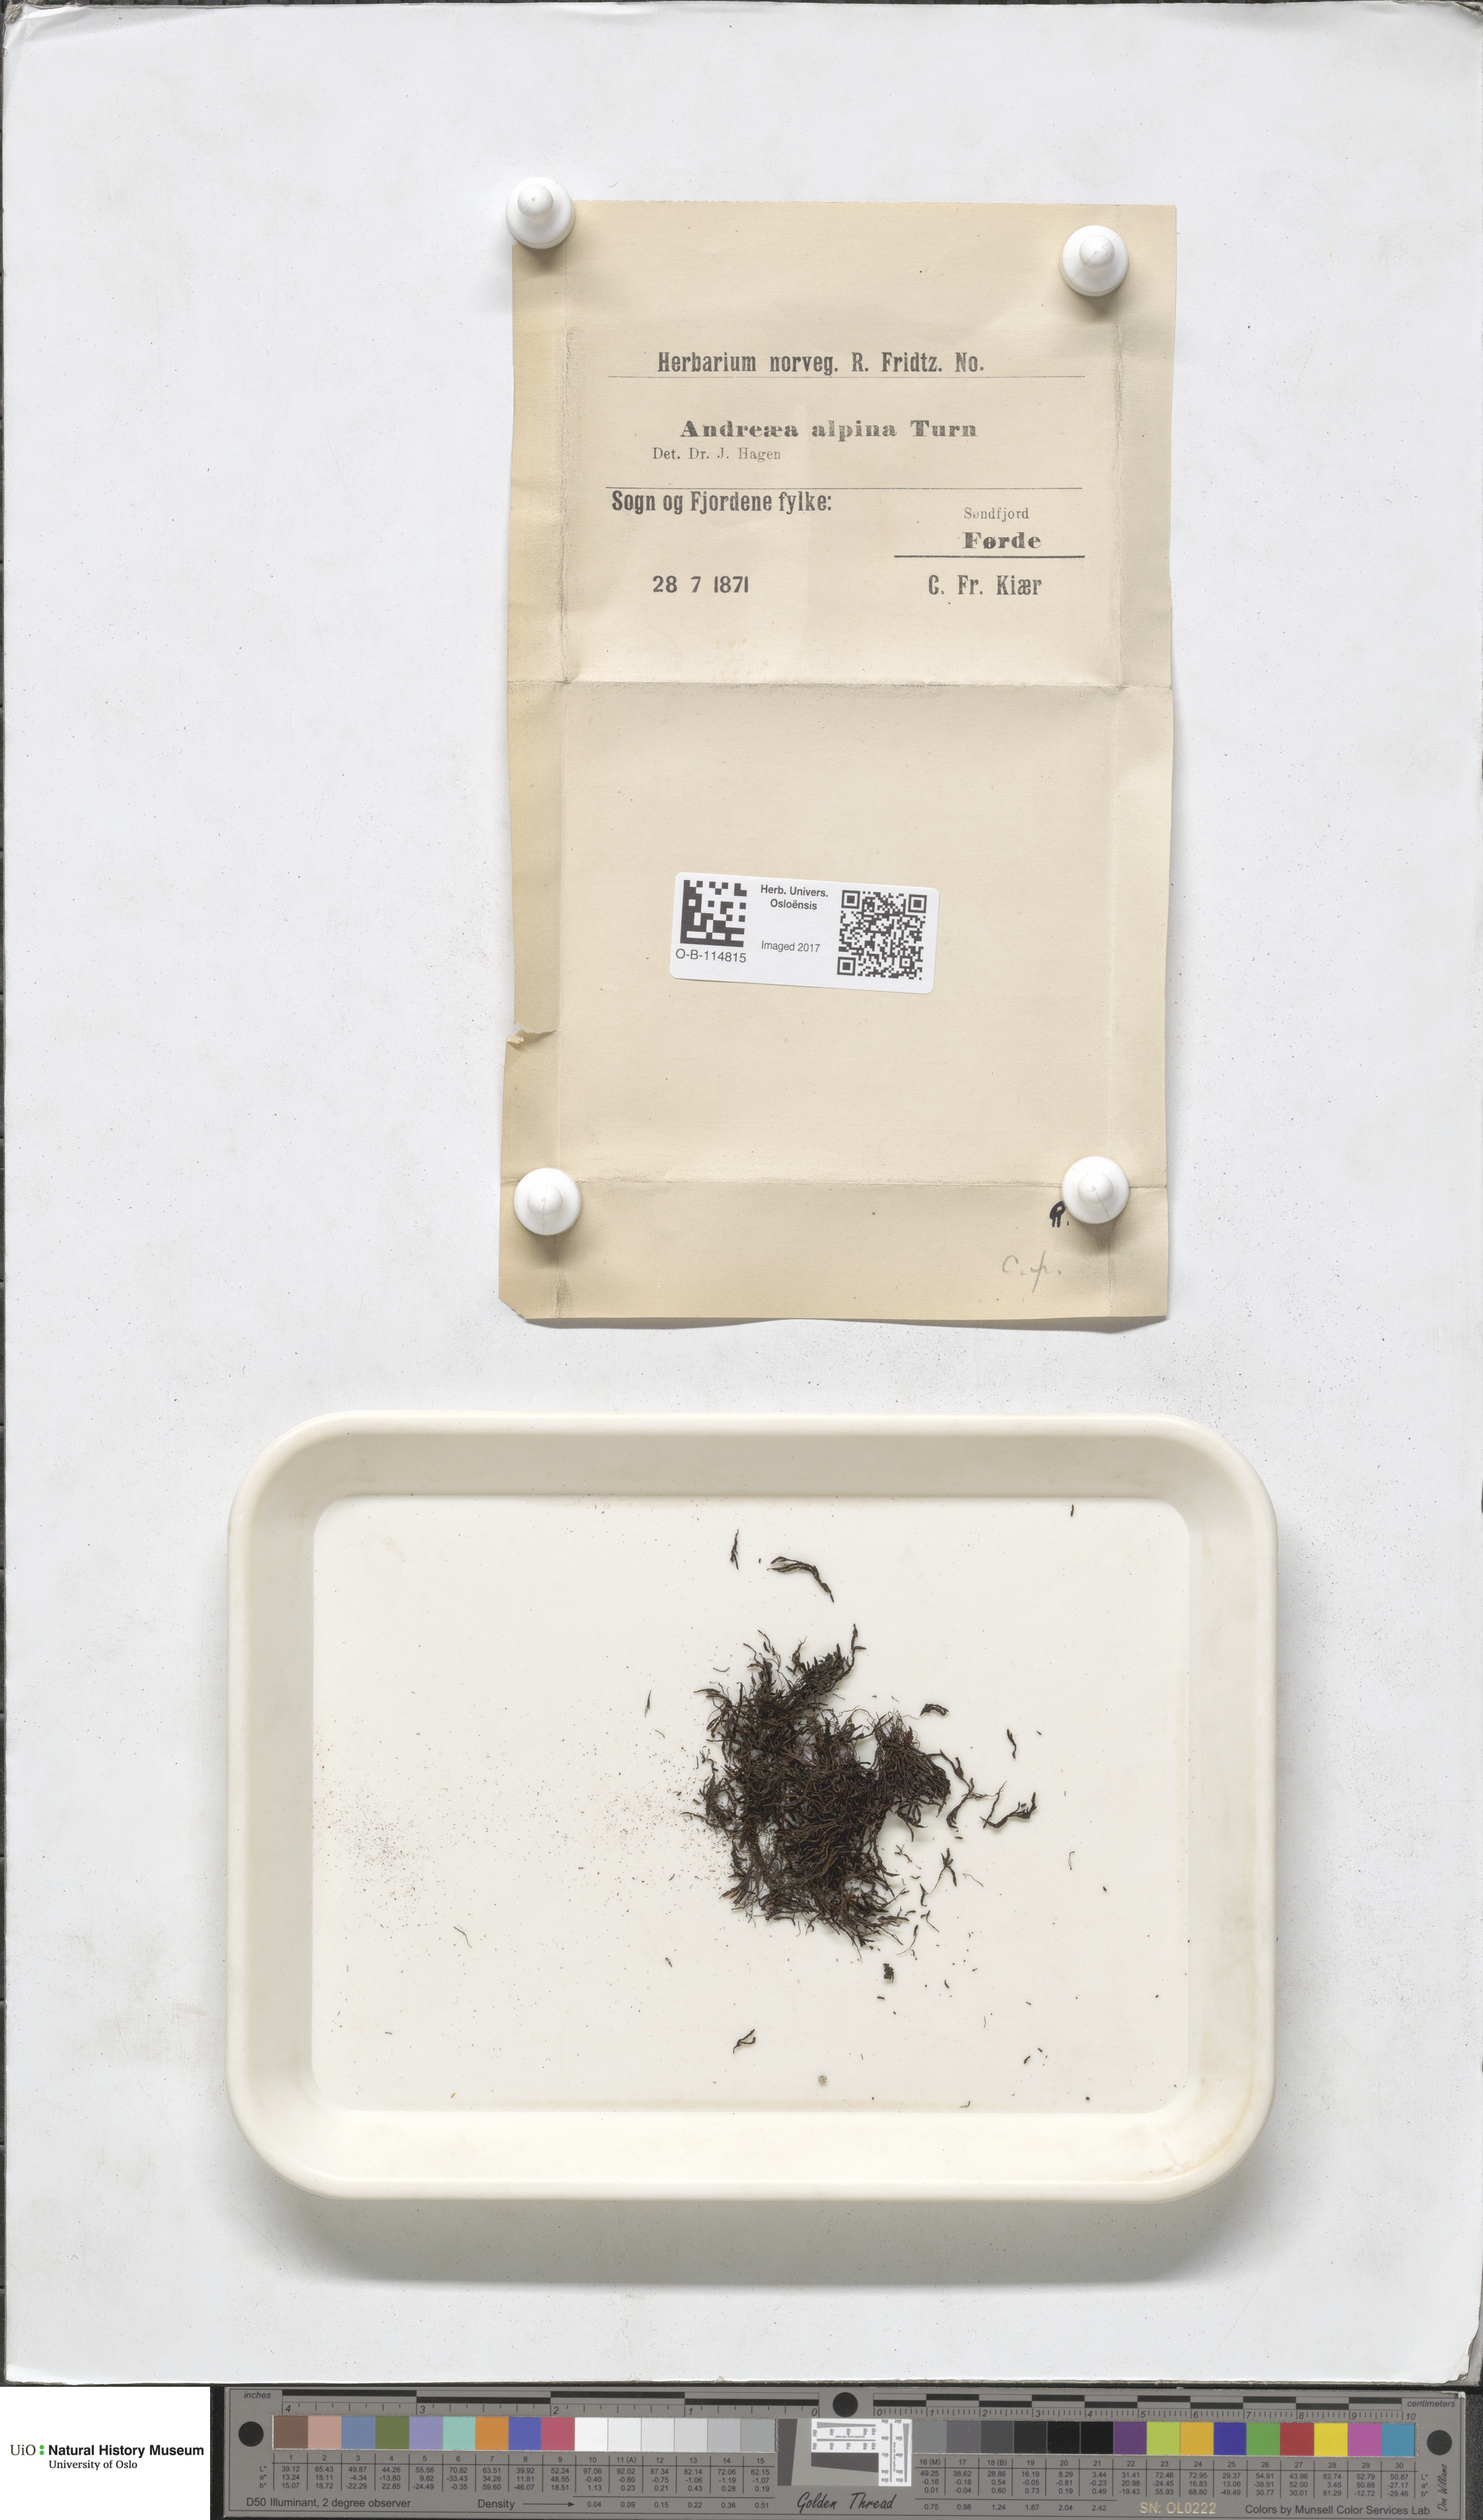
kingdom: Plantae
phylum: Bryophyta
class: Andreaeopsida
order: Andreaeales
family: Andreaeaceae
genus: Andreaea
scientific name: Andreaea hookeri
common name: Alpine rock-moss
